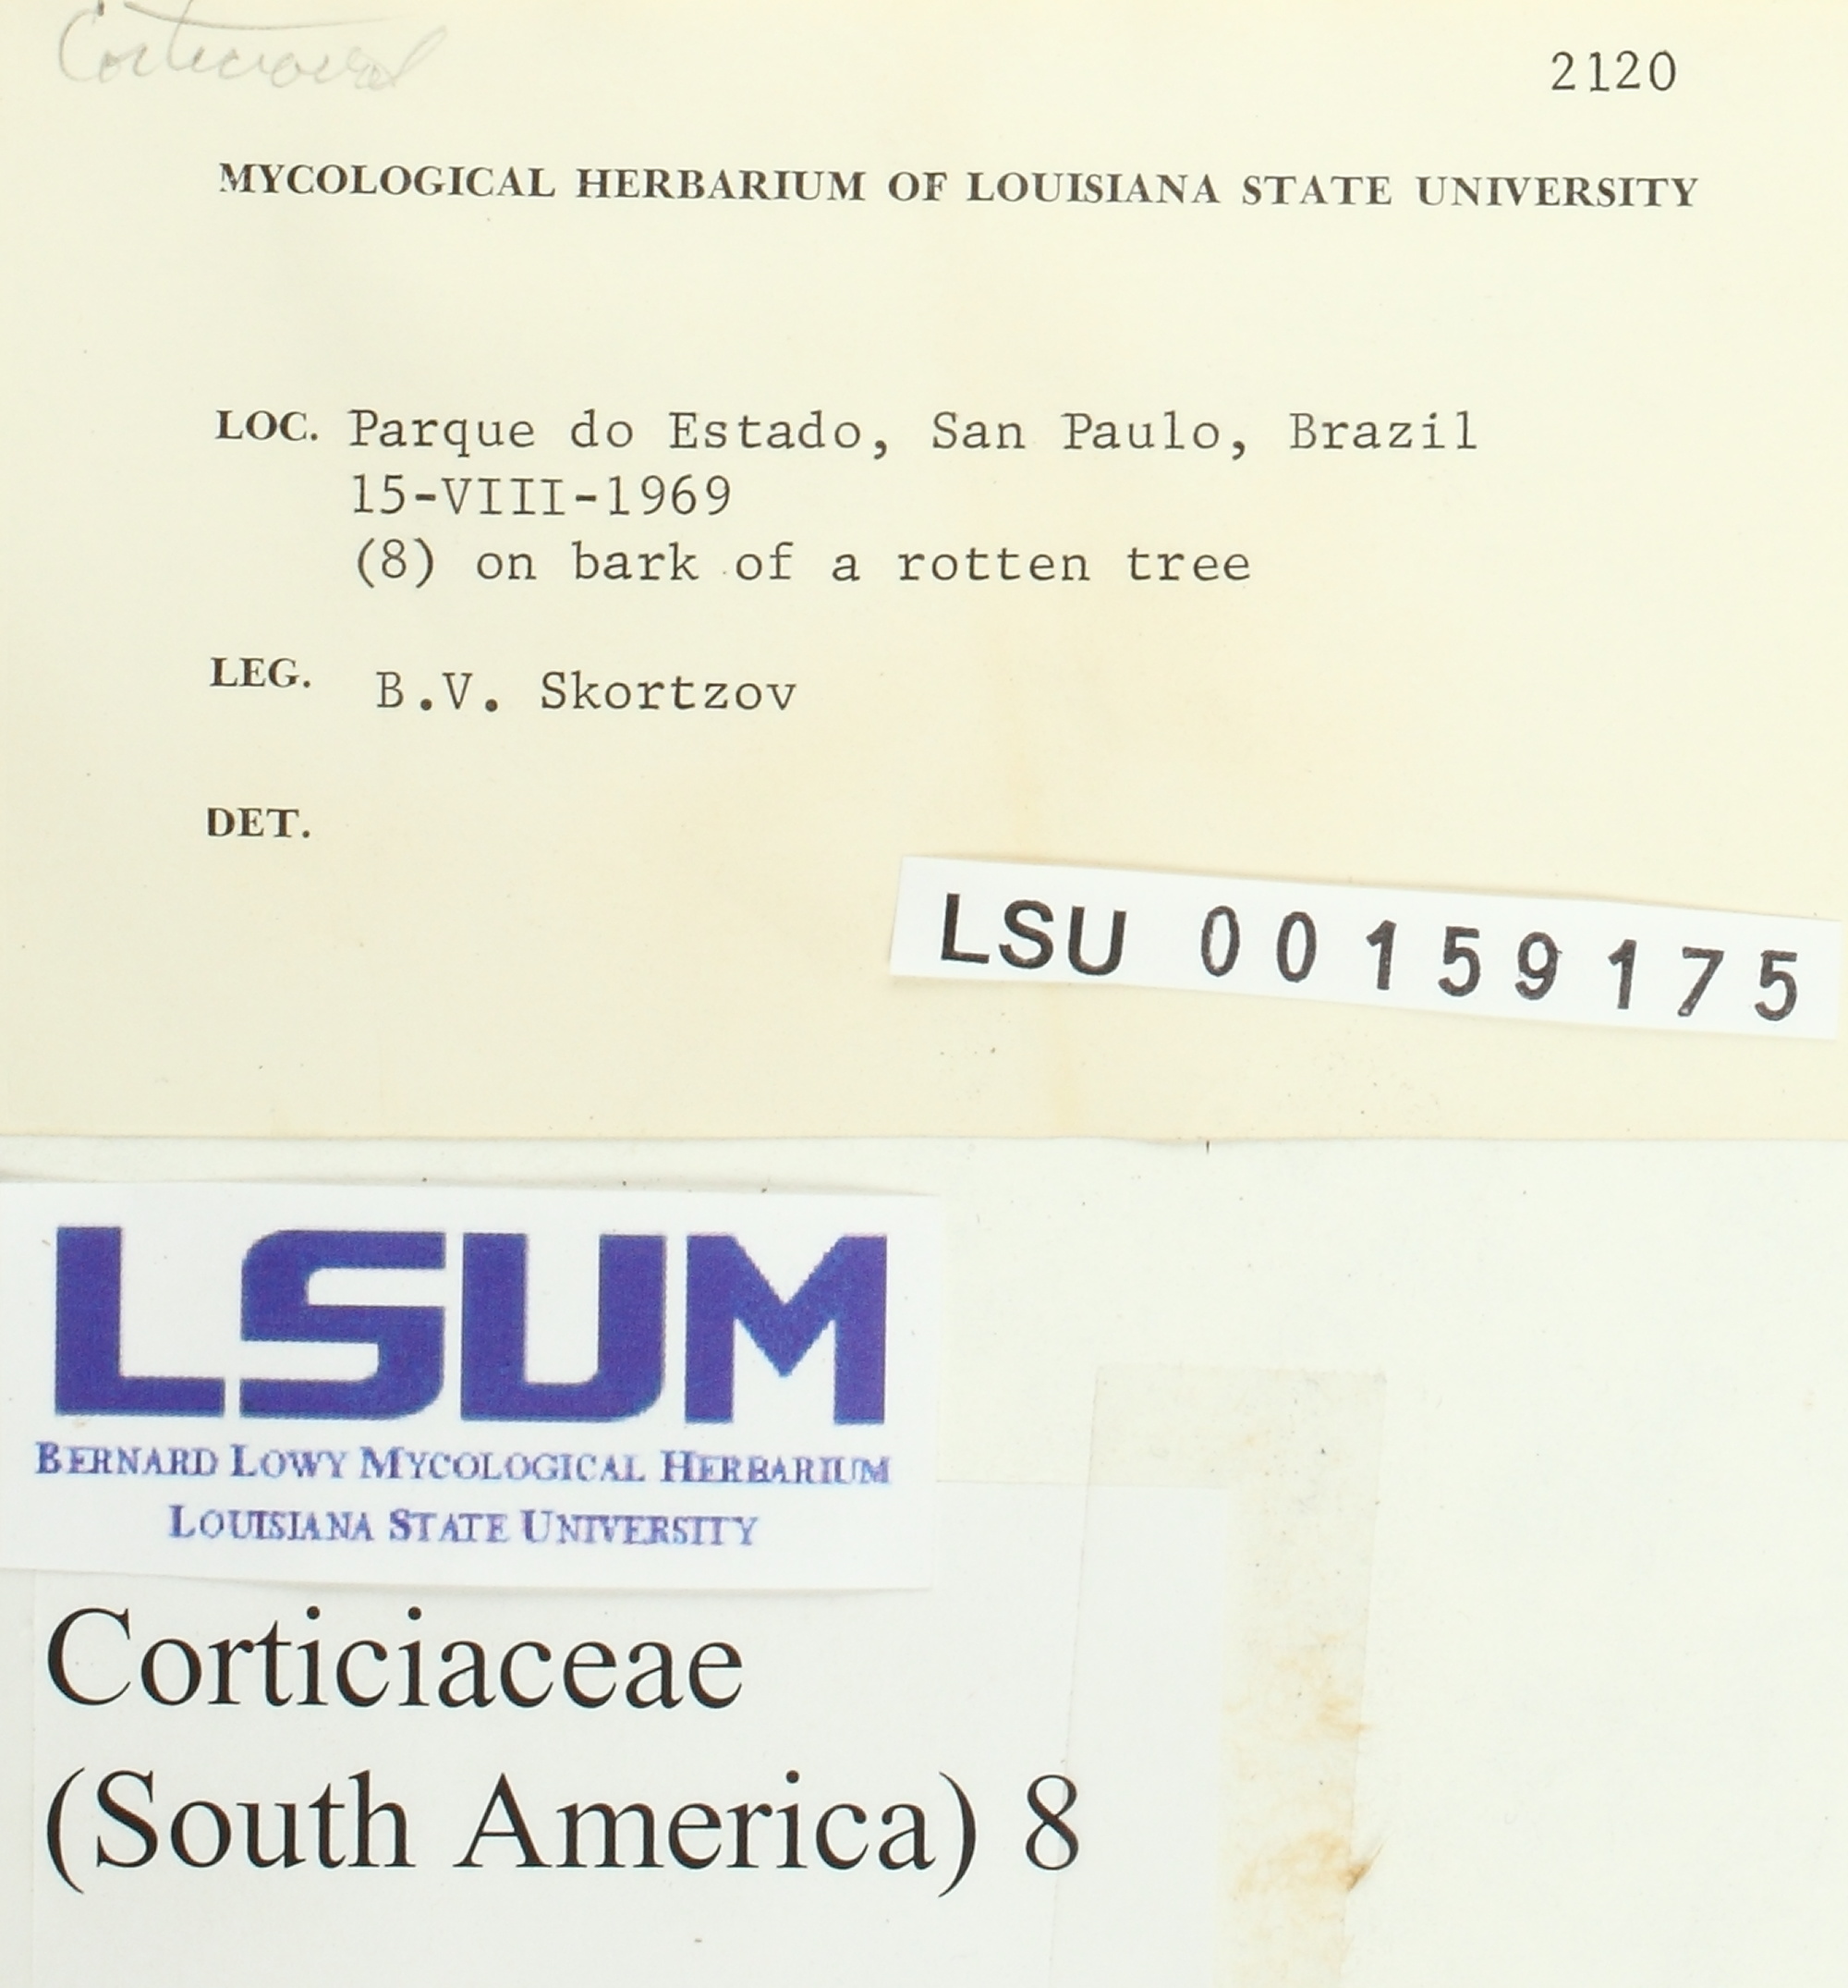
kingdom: Fungi
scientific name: Fungi
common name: Fungi
